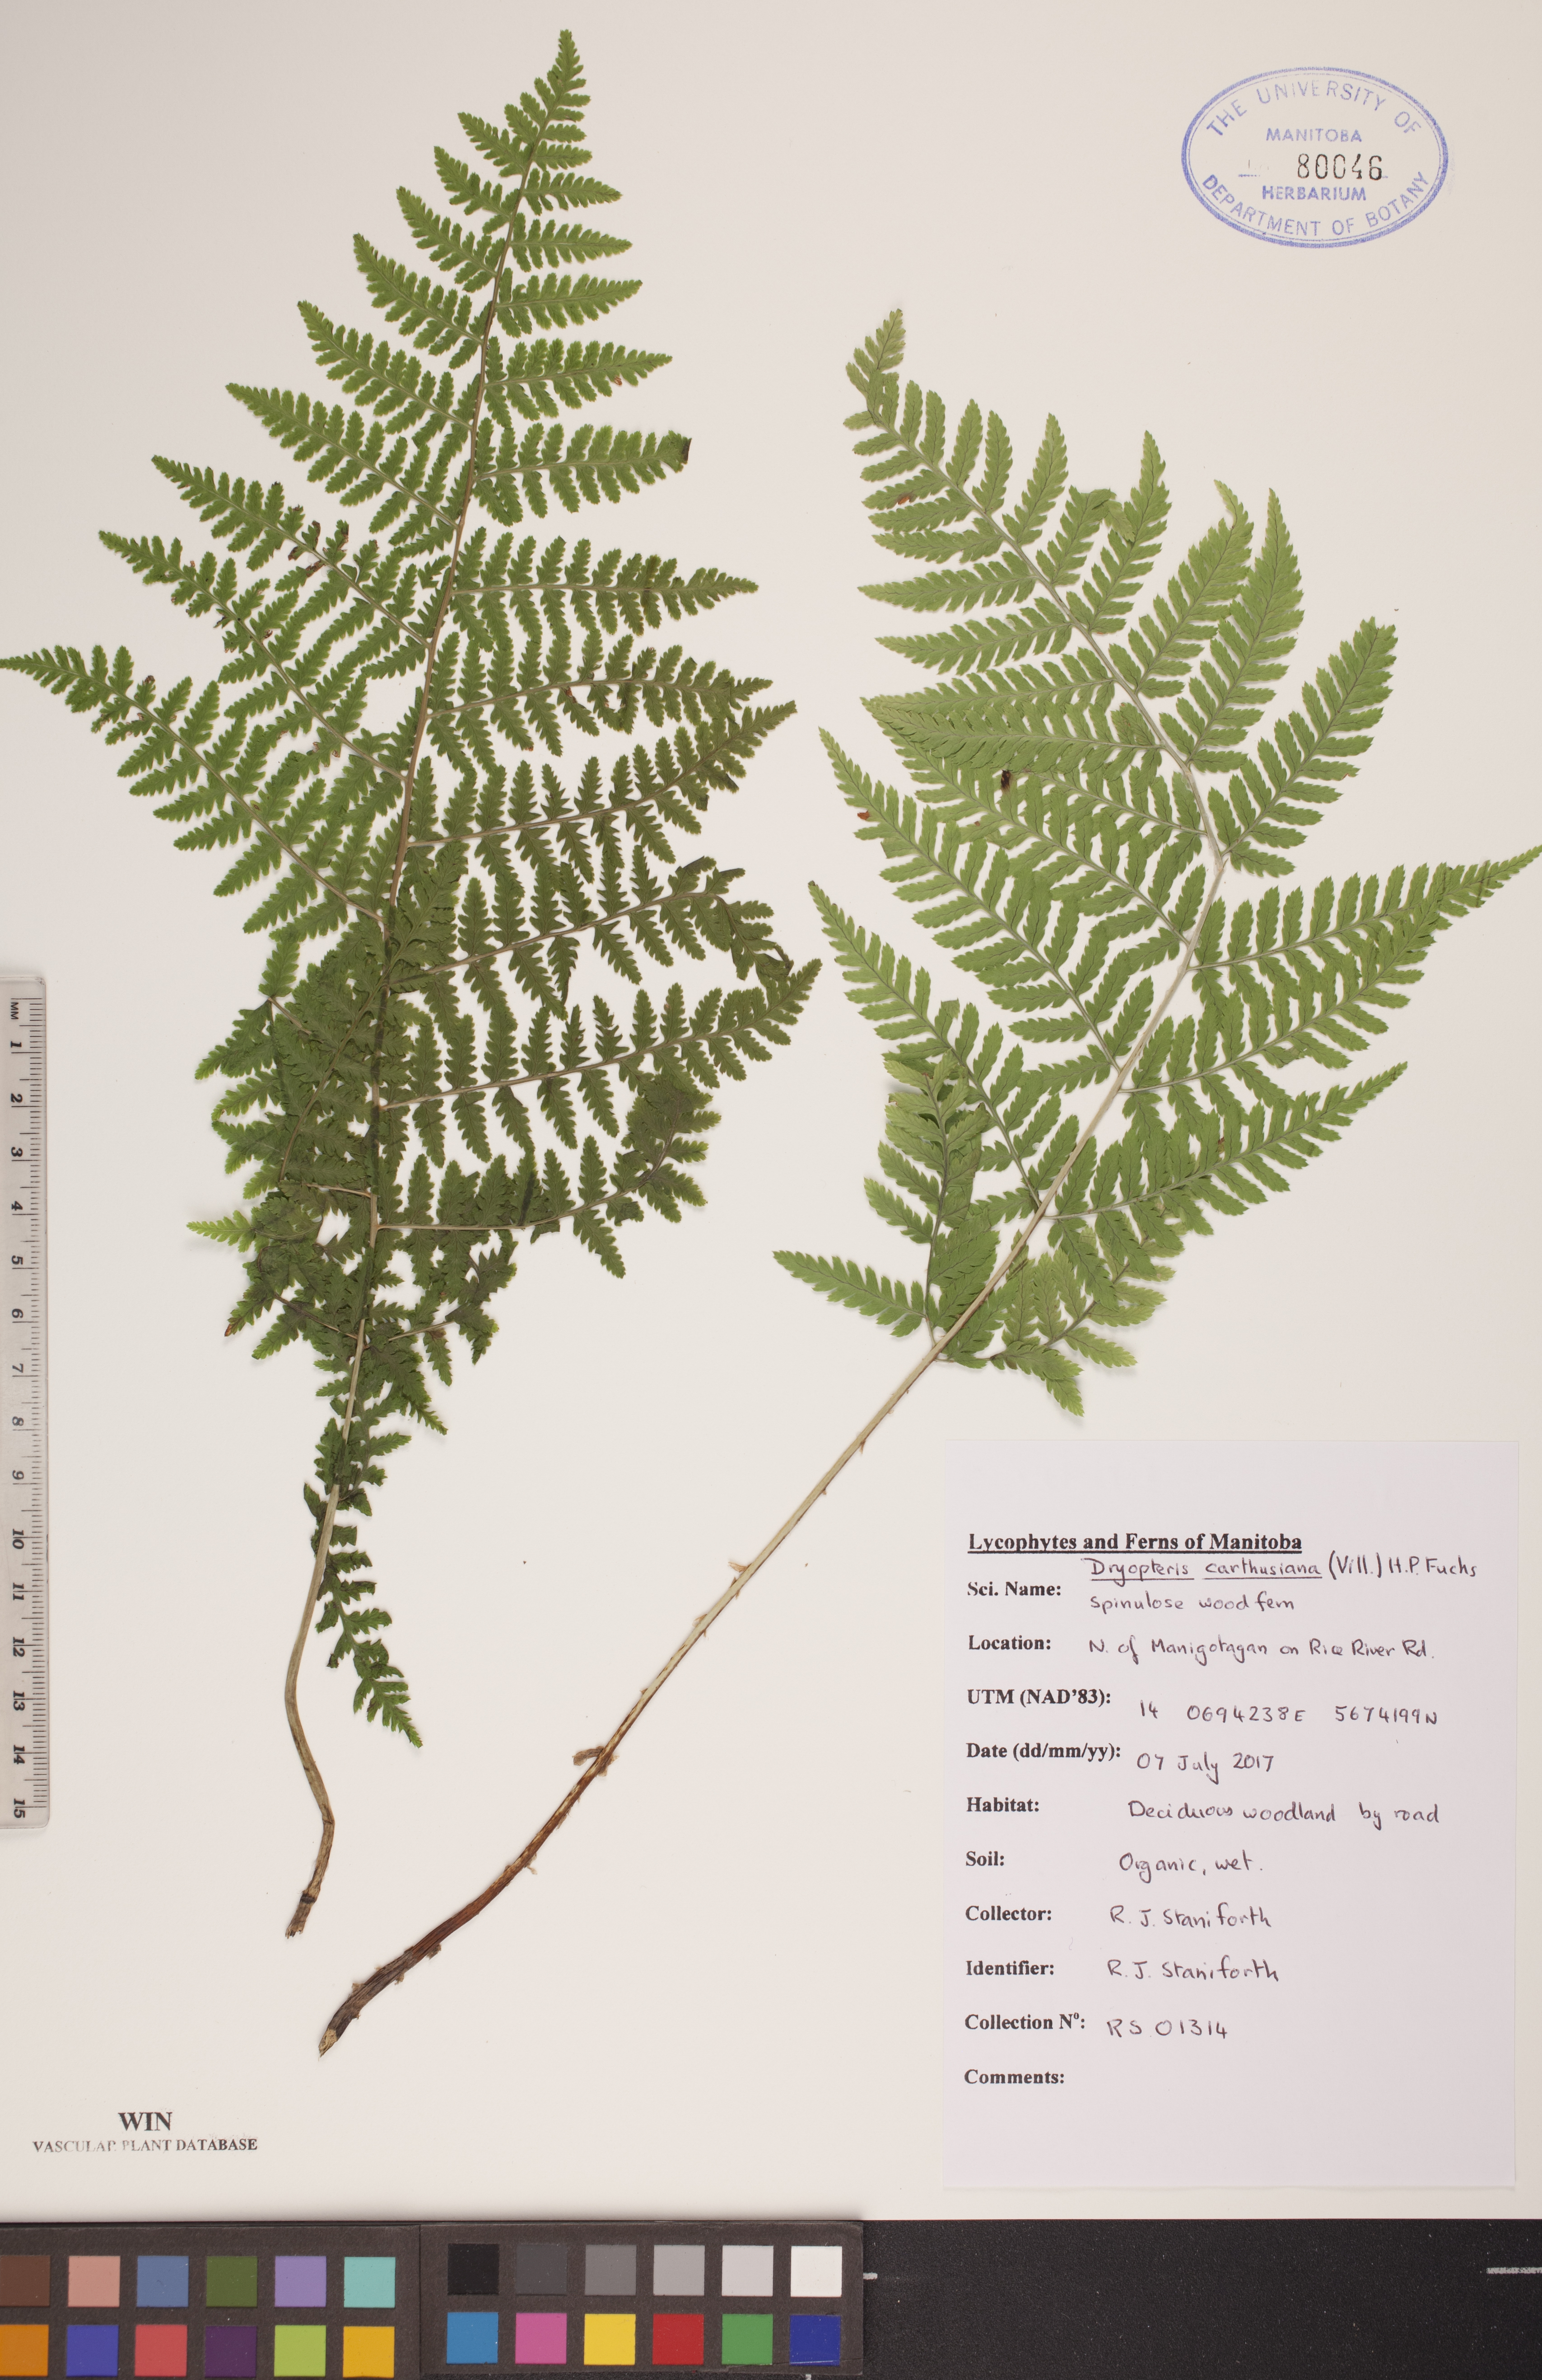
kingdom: Plantae
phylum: Tracheophyta
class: Polypodiopsida
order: Polypodiales
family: Dryopteridaceae
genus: Dryopteris
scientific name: Dryopteris carthusiana
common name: Narrow buckler-fern
